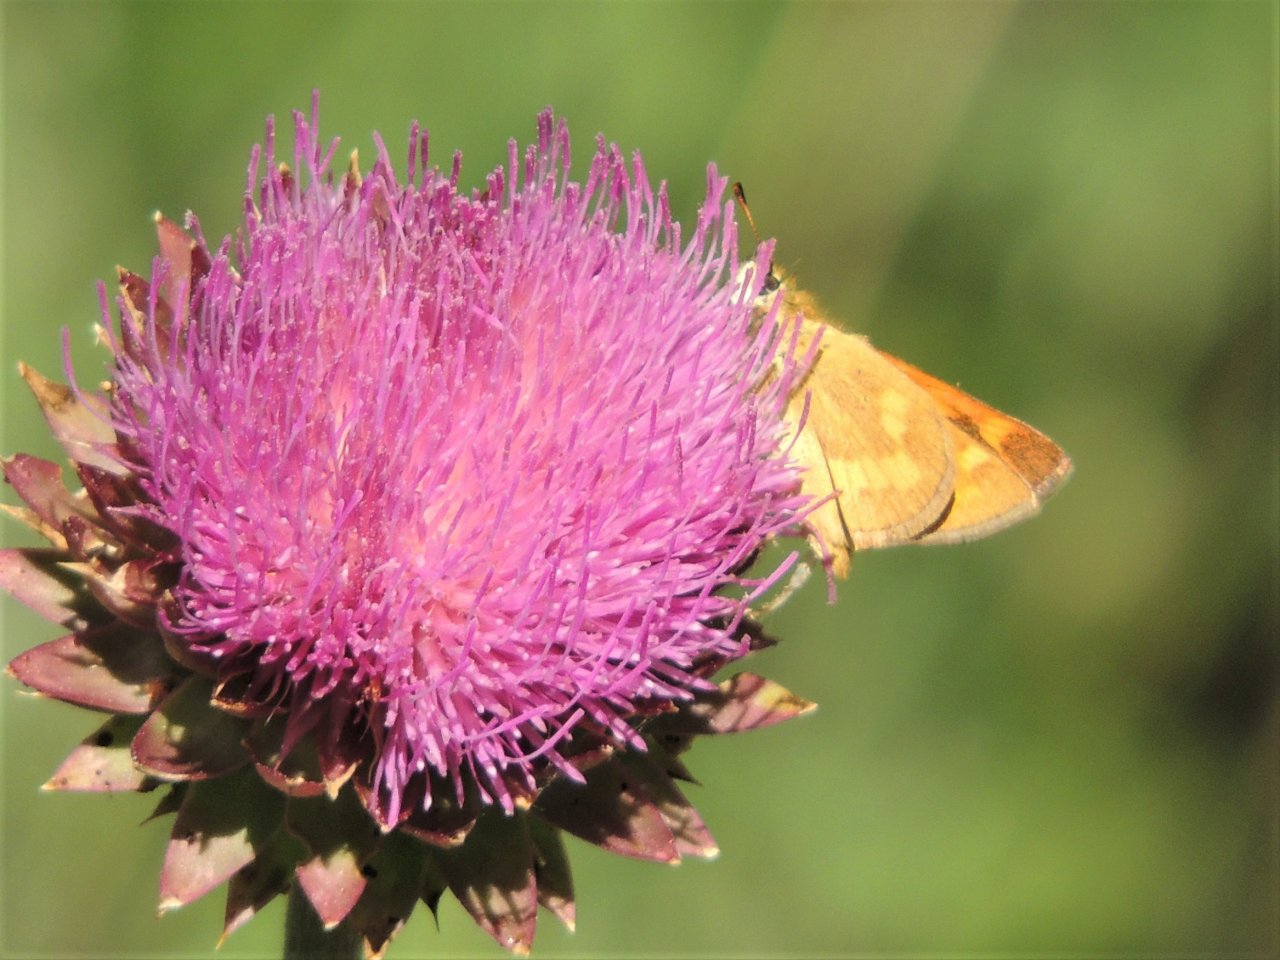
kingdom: Animalia
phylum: Arthropoda
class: Insecta
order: Lepidoptera
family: Hesperiidae
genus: Polites
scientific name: Polites
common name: Long Dash Skipper
